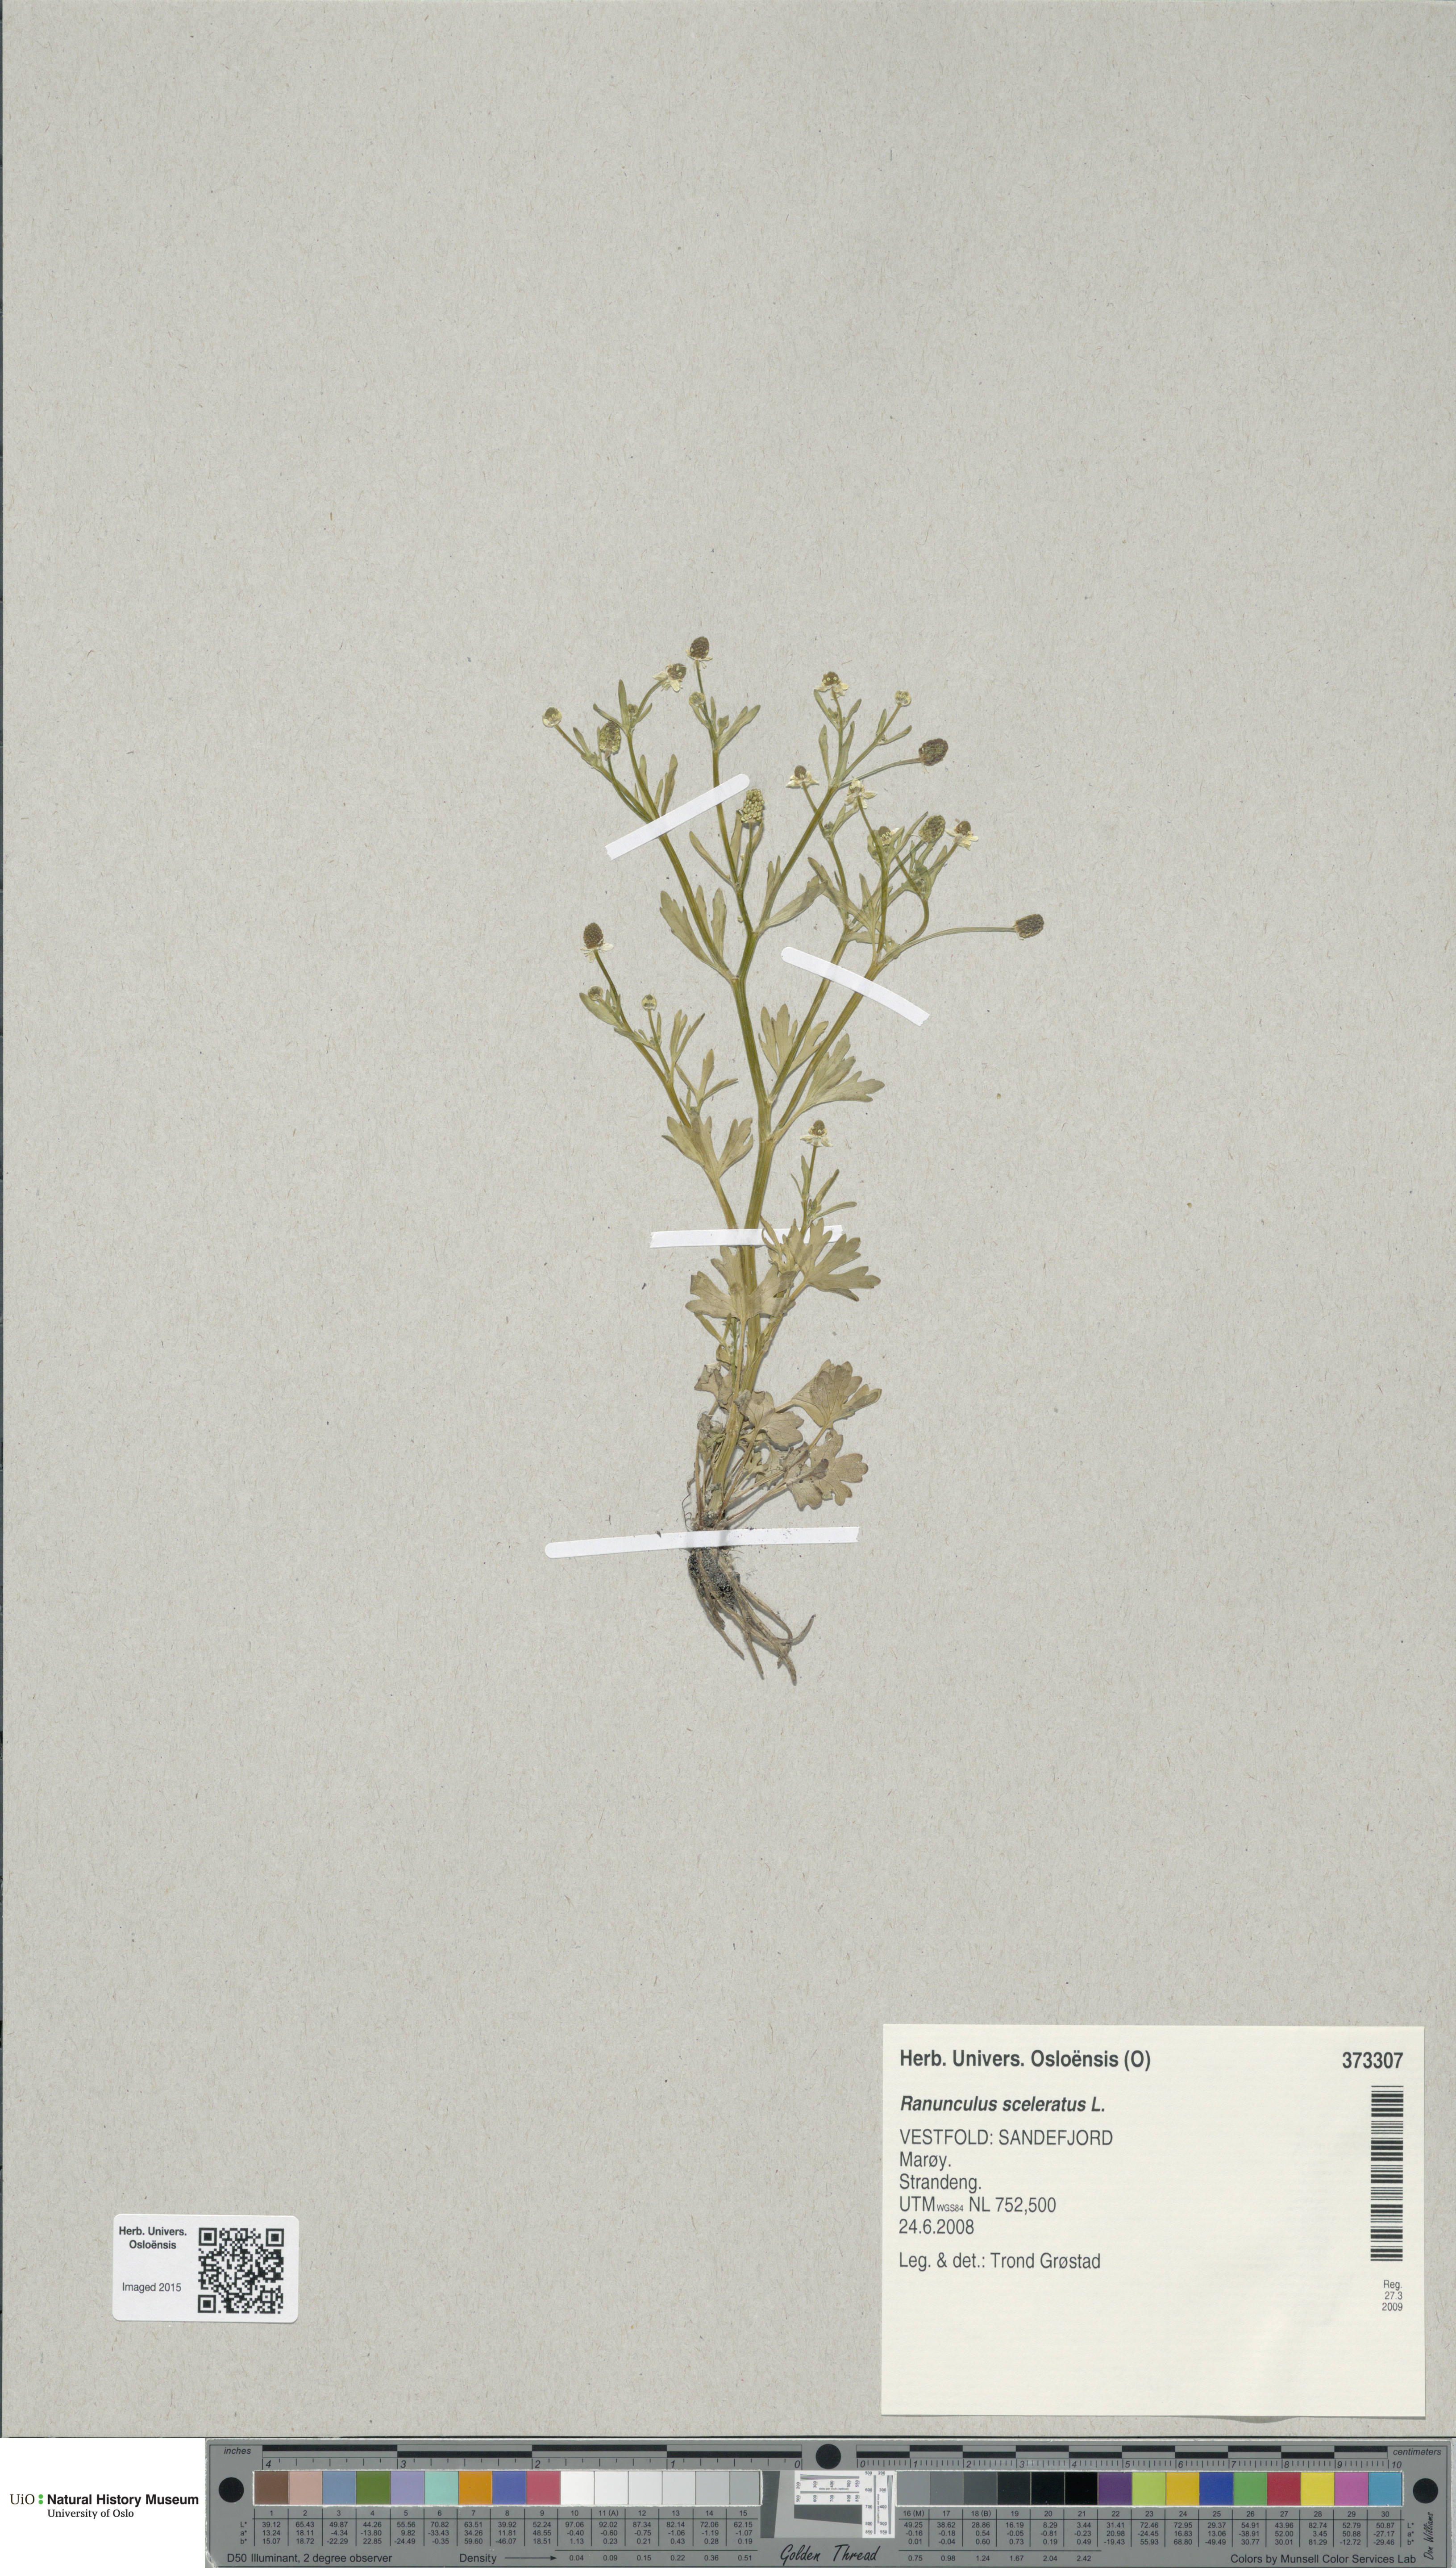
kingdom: Plantae
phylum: Tracheophyta
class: Magnoliopsida
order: Ranunculales
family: Ranunculaceae
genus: Ranunculus
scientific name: Ranunculus sceleratus
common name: Celery-leaved buttercup
